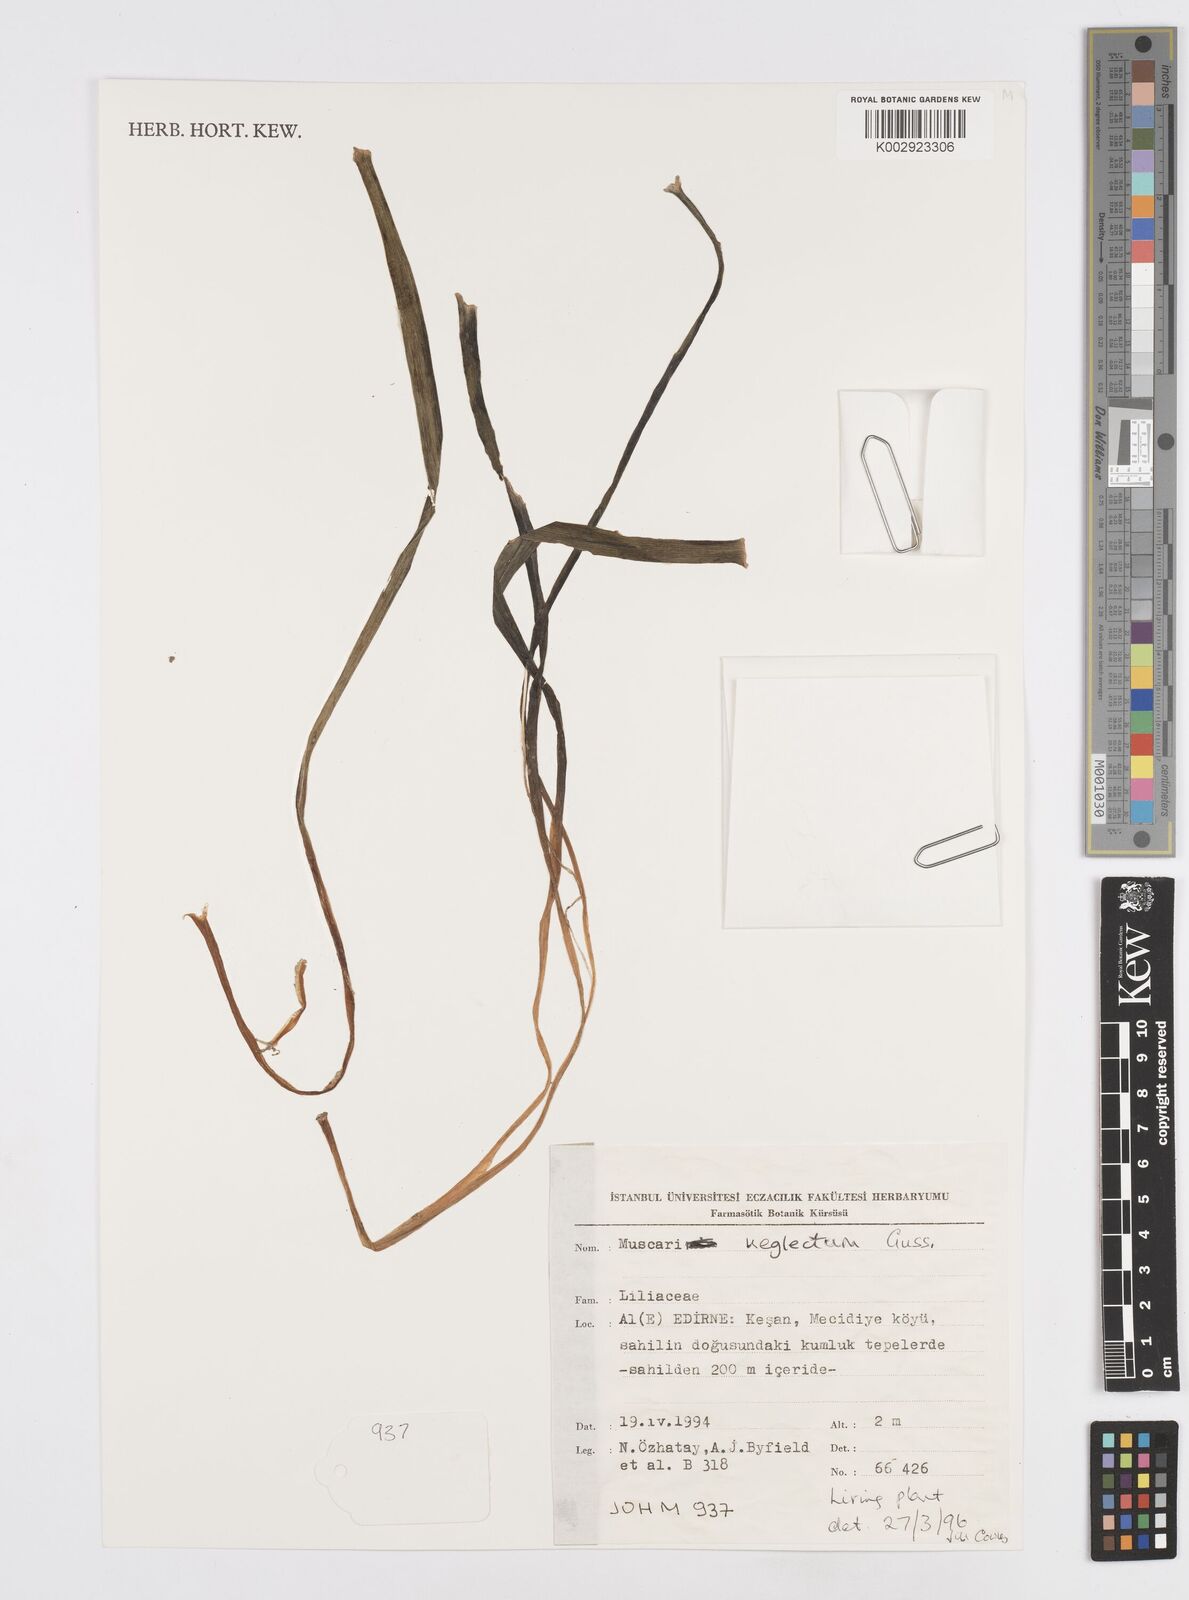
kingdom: Plantae
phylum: Tracheophyta
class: Liliopsida
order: Asparagales
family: Asparagaceae
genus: Muscari
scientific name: Muscari neglectum
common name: Grape-hyacinth
